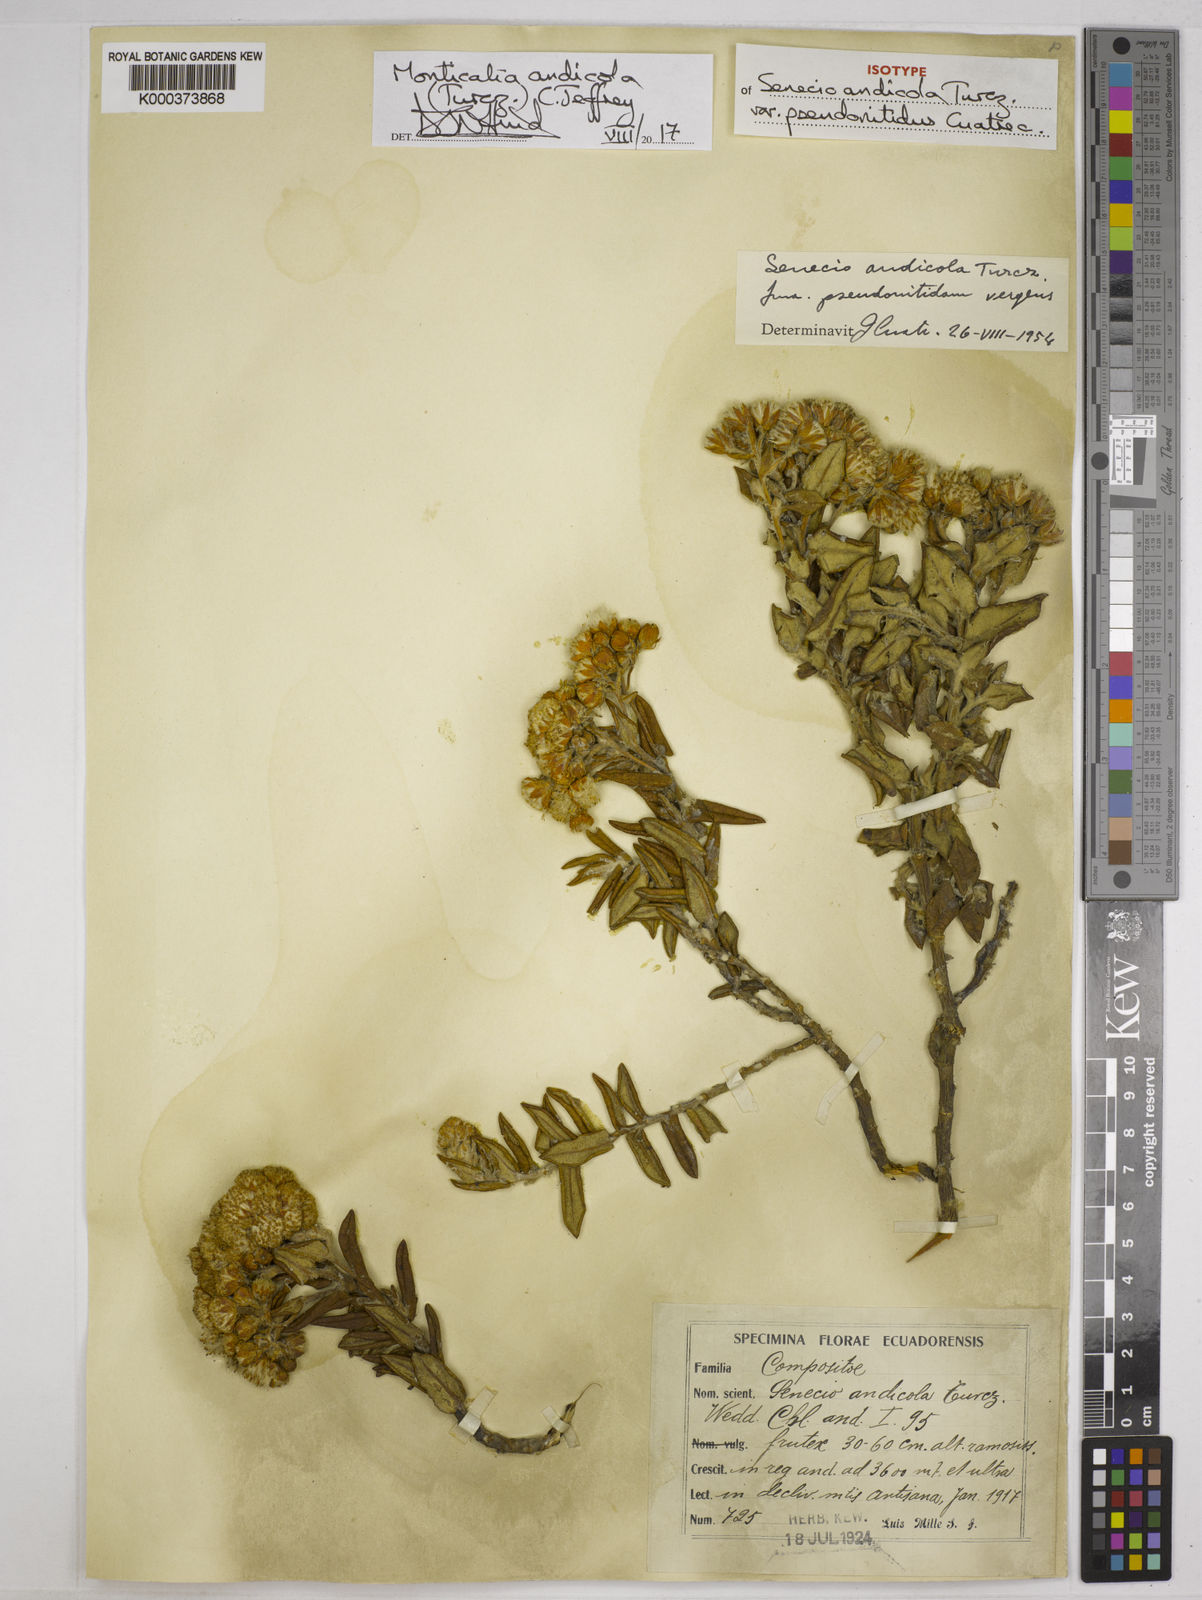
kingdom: Plantae
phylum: Tracheophyta
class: Magnoliopsida
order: Asterales
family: Asteraceae
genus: Monticalia
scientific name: Monticalia andicola
